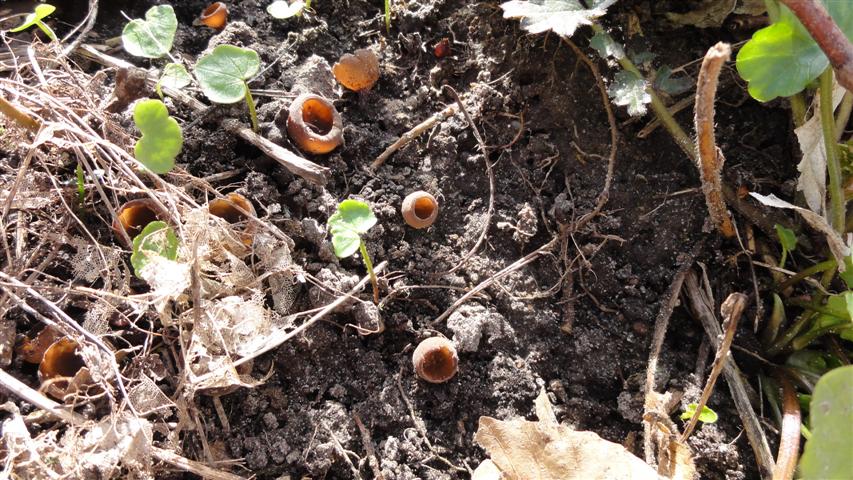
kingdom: Fungi
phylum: Ascomycota
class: Leotiomycetes
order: Helotiales
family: Sclerotiniaceae
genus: Dumontinia
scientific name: Dumontinia tuberosa
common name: anemone-knoldskive
